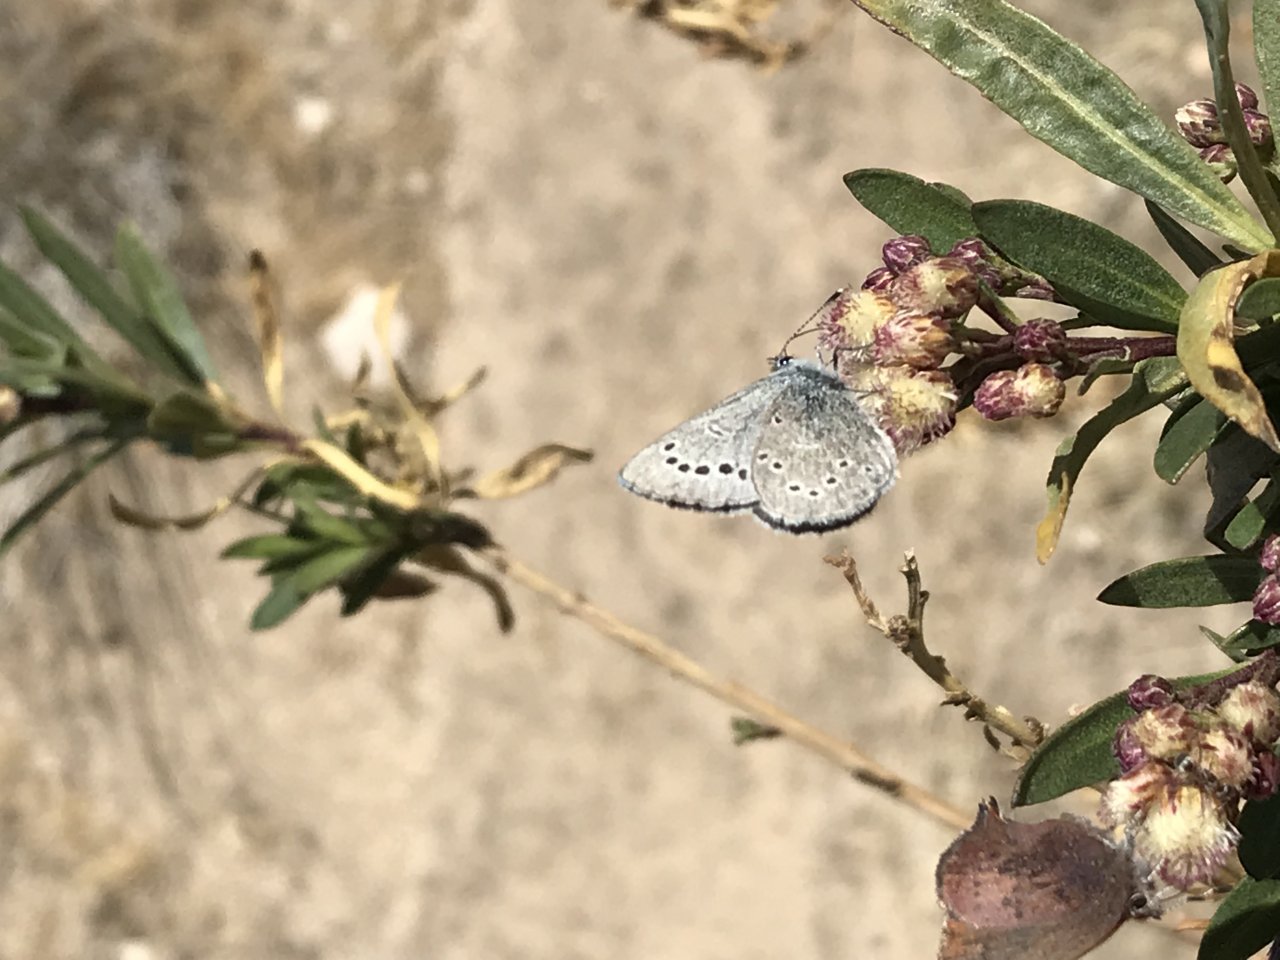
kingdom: Animalia
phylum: Arthropoda
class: Insecta
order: Lepidoptera
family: Lycaenidae
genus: Glaucopsyche
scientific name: Glaucopsyche lygdamus
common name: Silvery Blue
